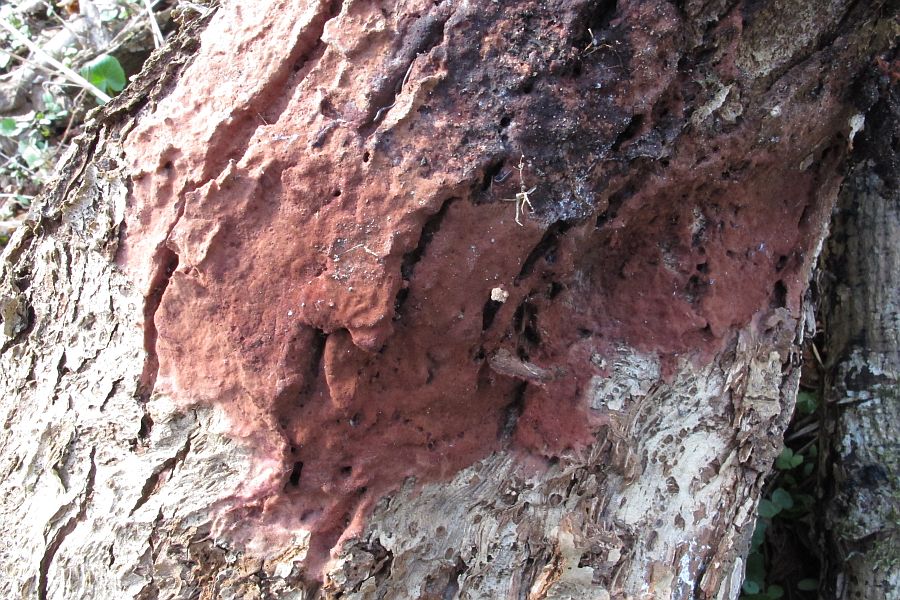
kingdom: Fungi
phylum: Basidiomycota
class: Pucciniomycetes
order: Helicobasidiales
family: Helicobasidiaceae
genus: Helicobasidium
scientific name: Helicobasidium purpureum
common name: purpur-bispebævrehinde
